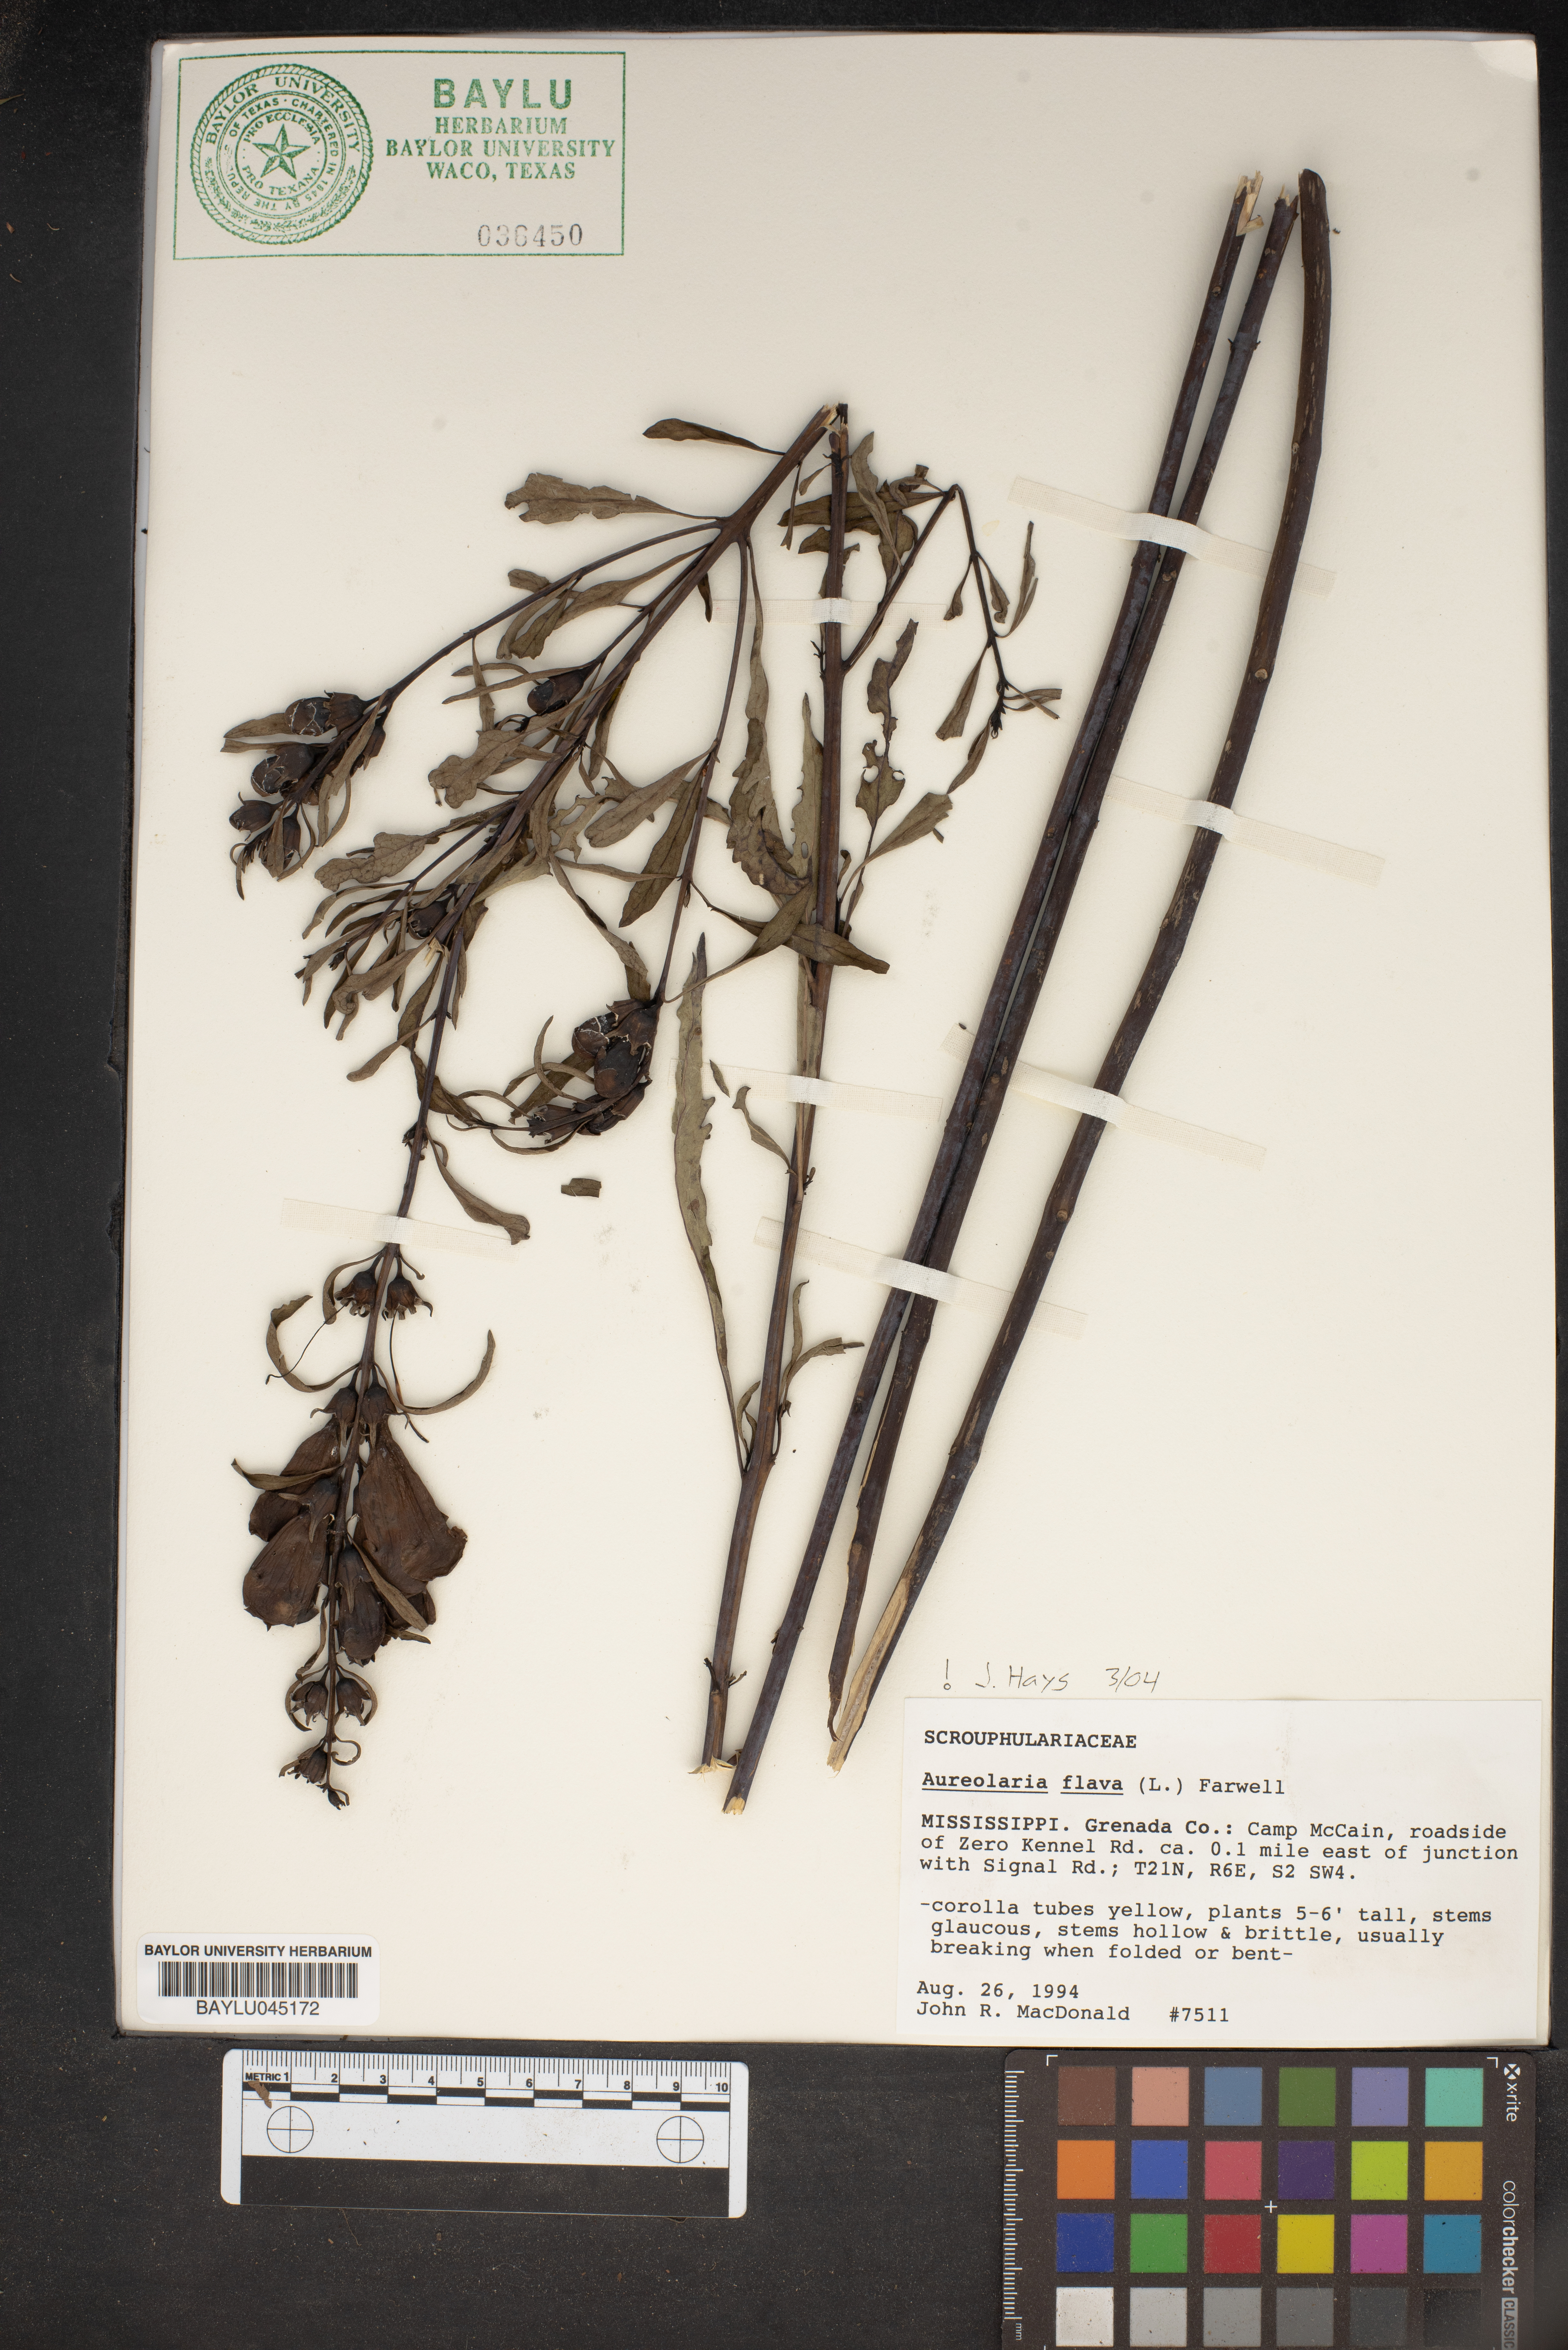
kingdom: Plantae
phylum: Tracheophyta
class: Magnoliopsida
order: Lamiales
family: Orobanchaceae
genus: Aureolaria
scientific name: Aureolaria flava
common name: Smooth false foxglove
